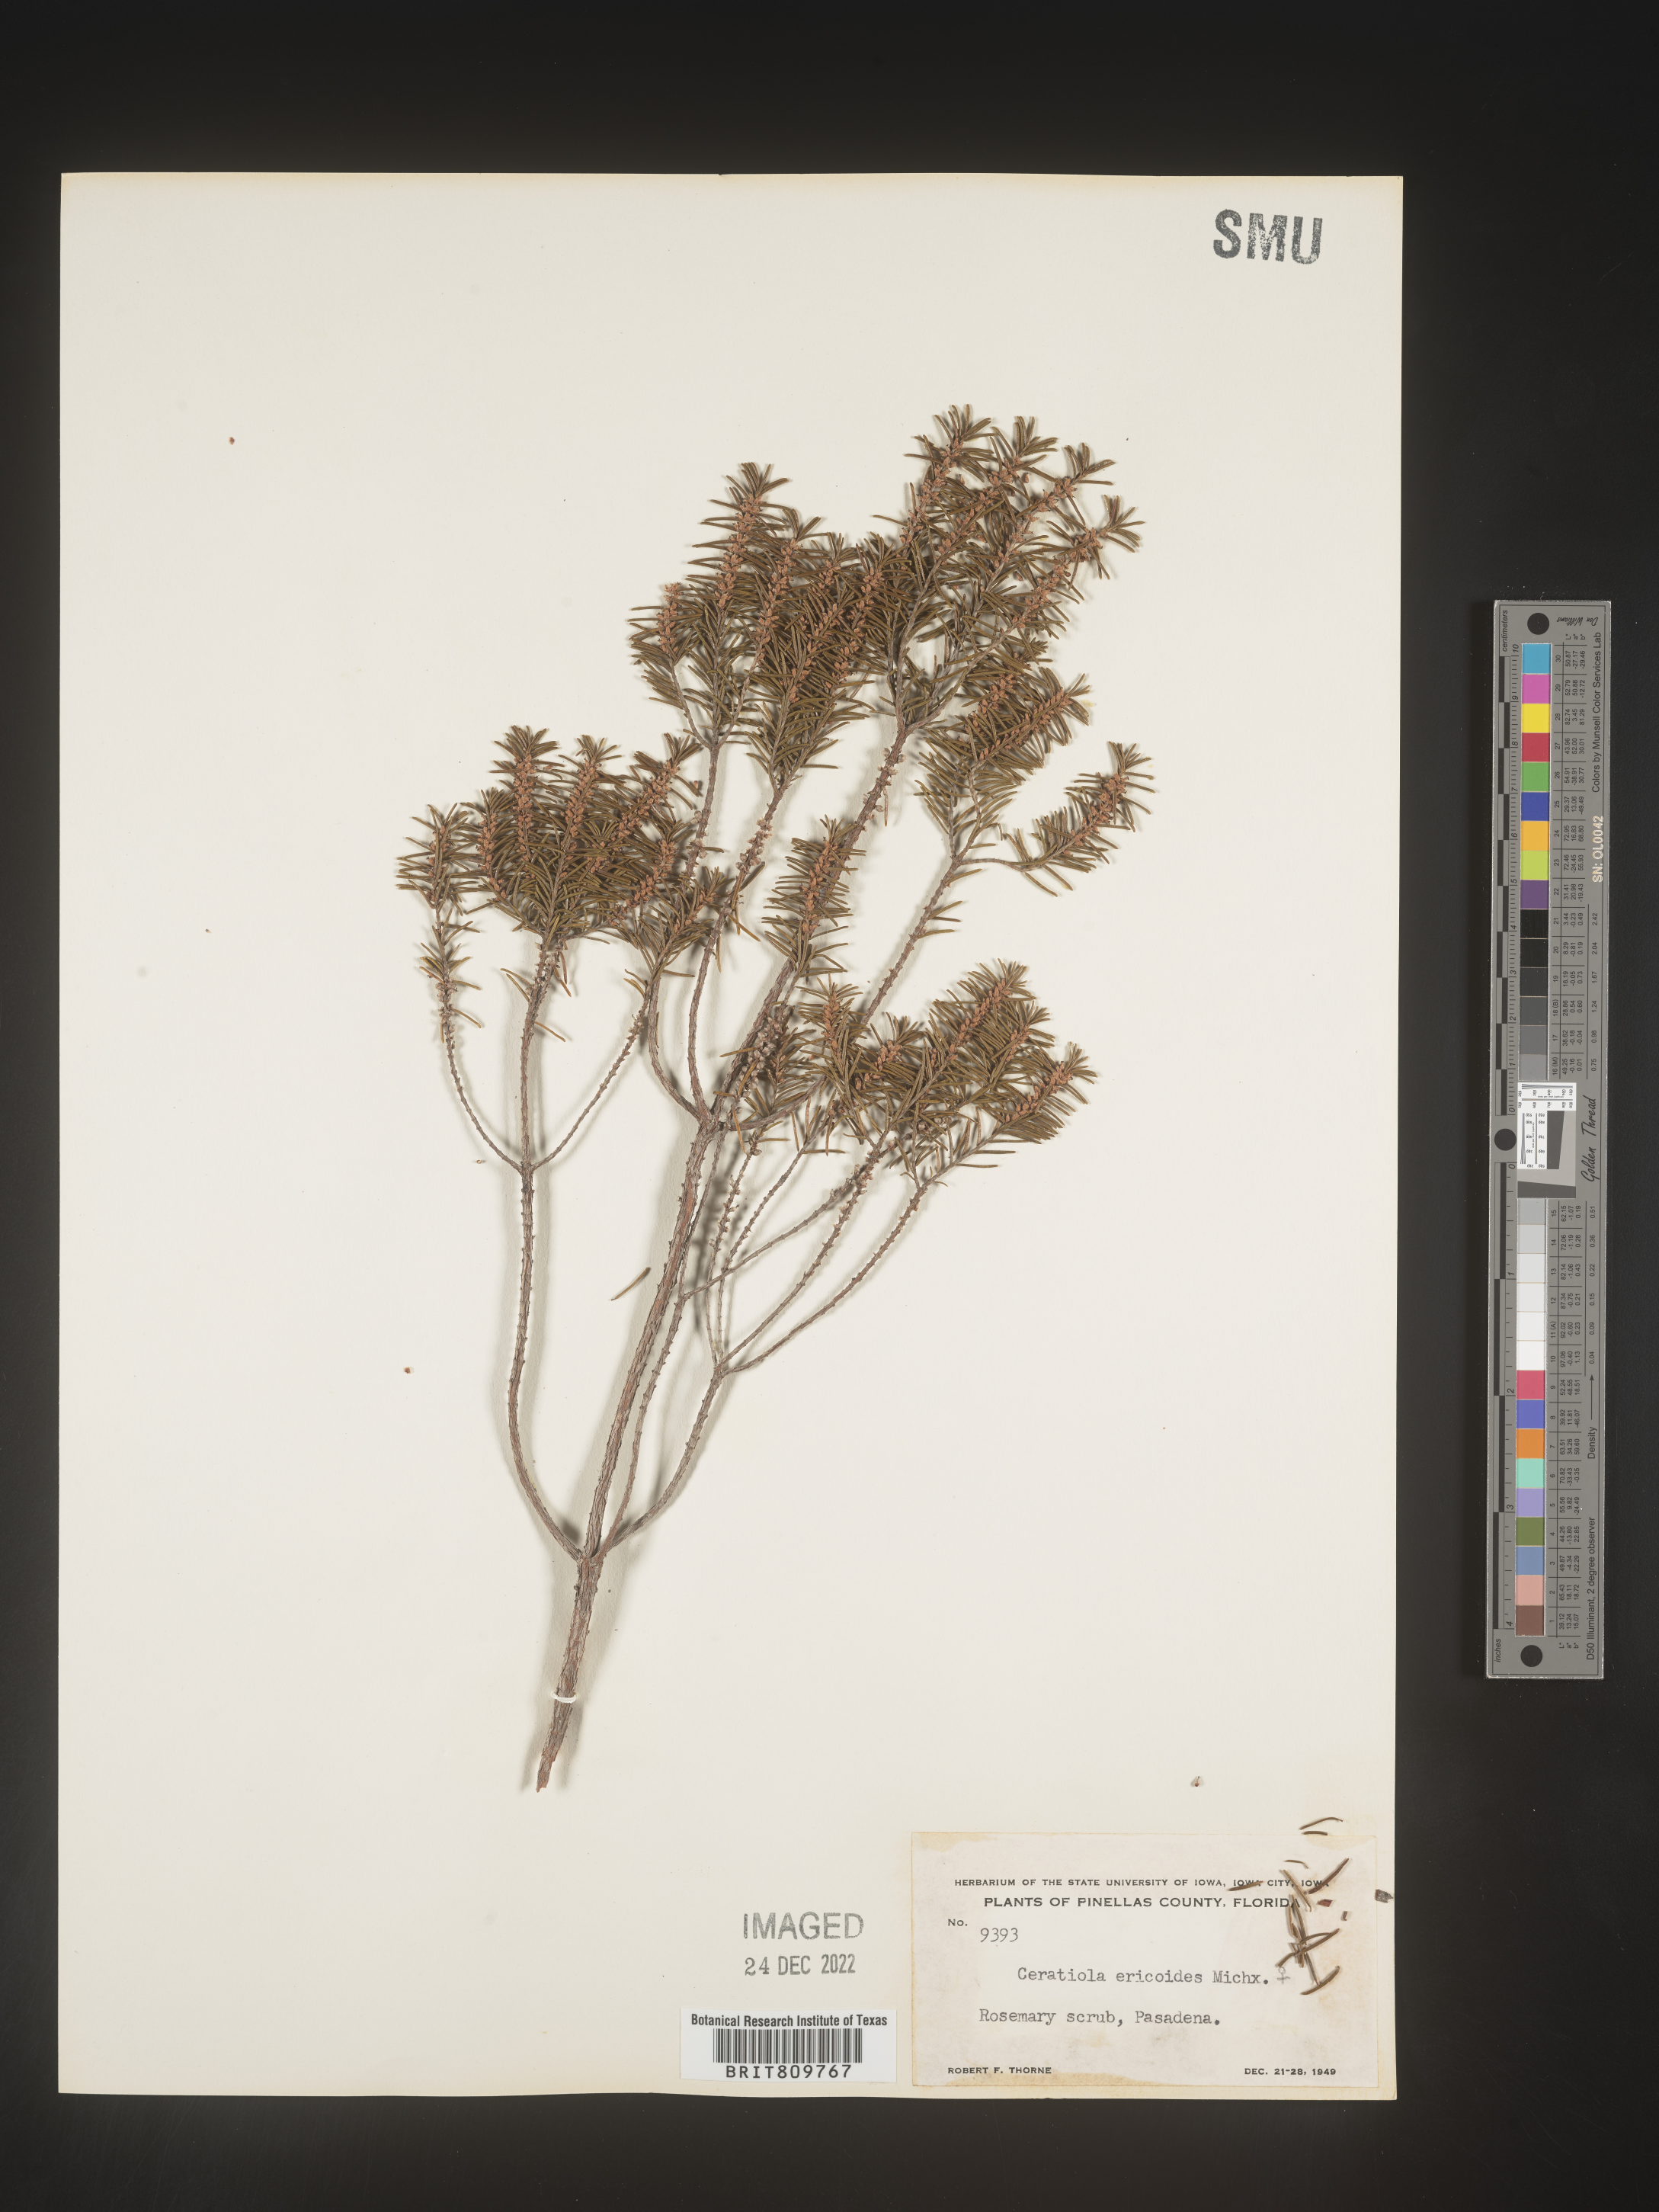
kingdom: Plantae
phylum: Tracheophyta
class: Magnoliopsida
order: Ericales
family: Ericaceae
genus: Ceratiola
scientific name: Ceratiola ericoides
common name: Sandhill-rosemary
